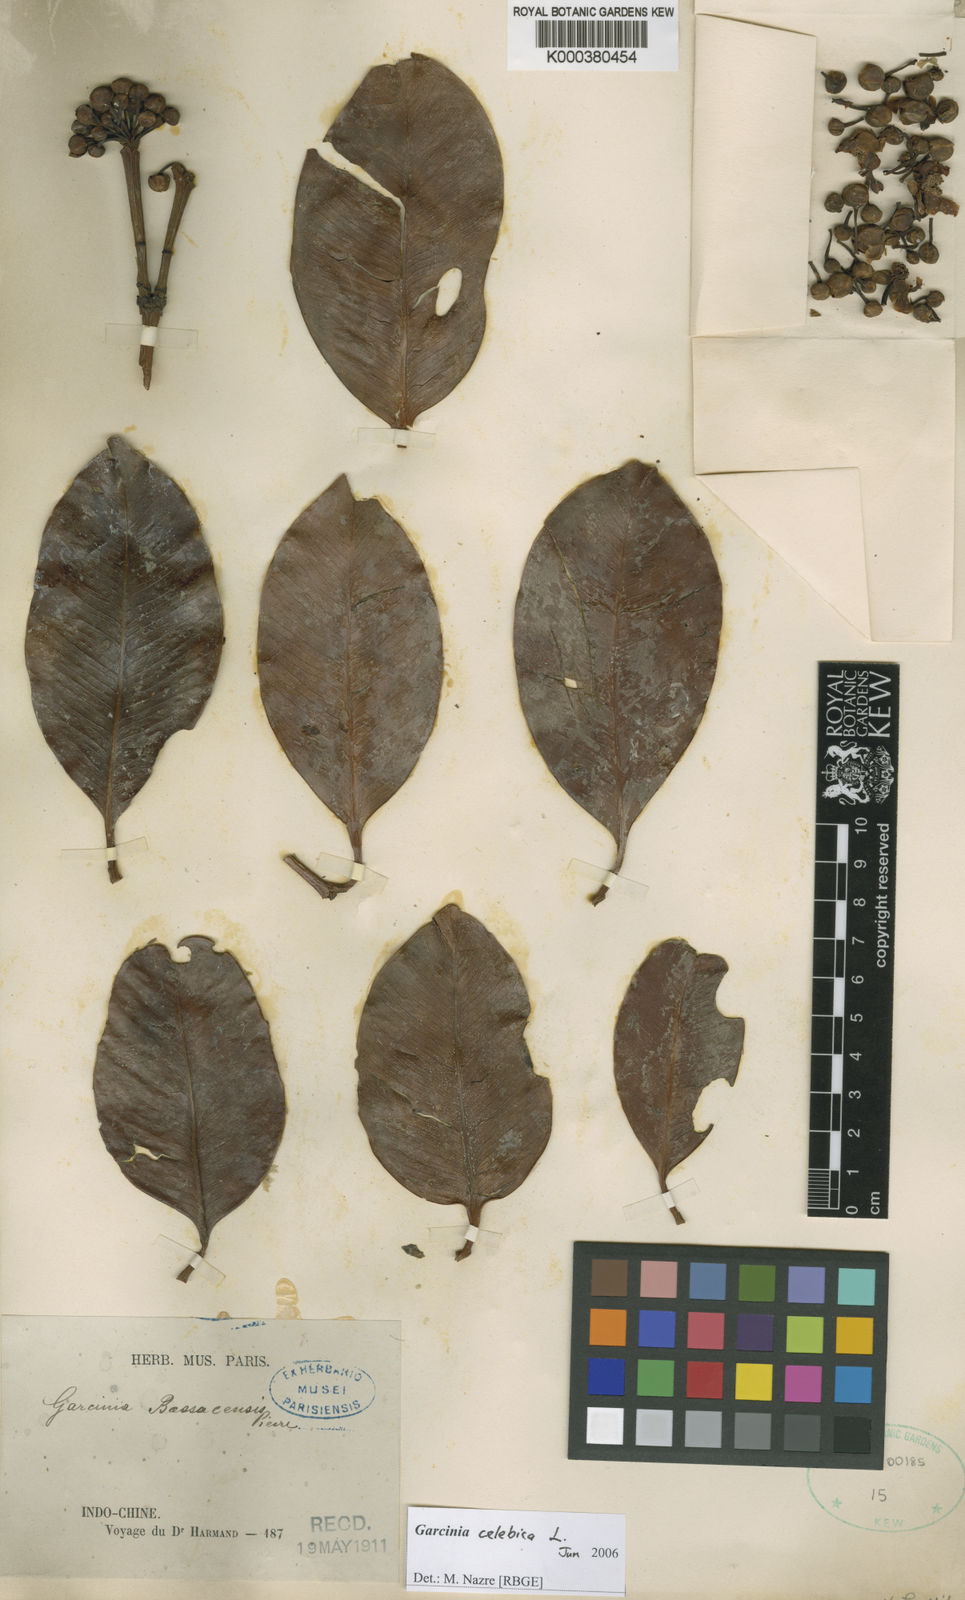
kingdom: Plantae
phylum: Tracheophyta
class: Magnoliopsida
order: Malpighiales
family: Clusiaceae
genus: Garcinia
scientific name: Garcinia celebica
